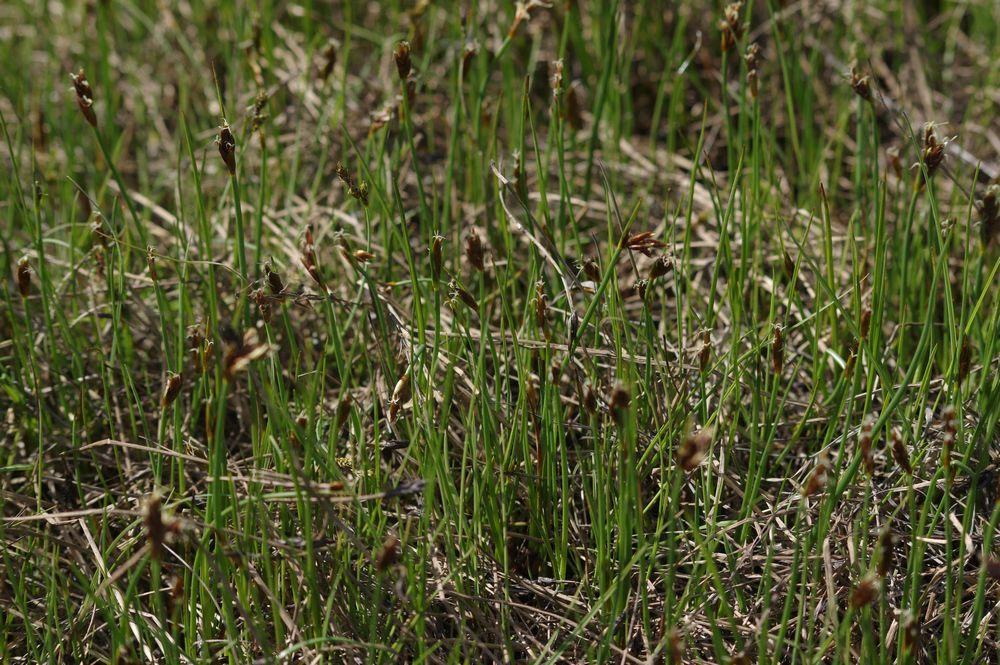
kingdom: Plantae
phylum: Tracheophyta
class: Liliopsida
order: Poales
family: Cyperaceae
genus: Blysmus
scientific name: Blysmus rufus
